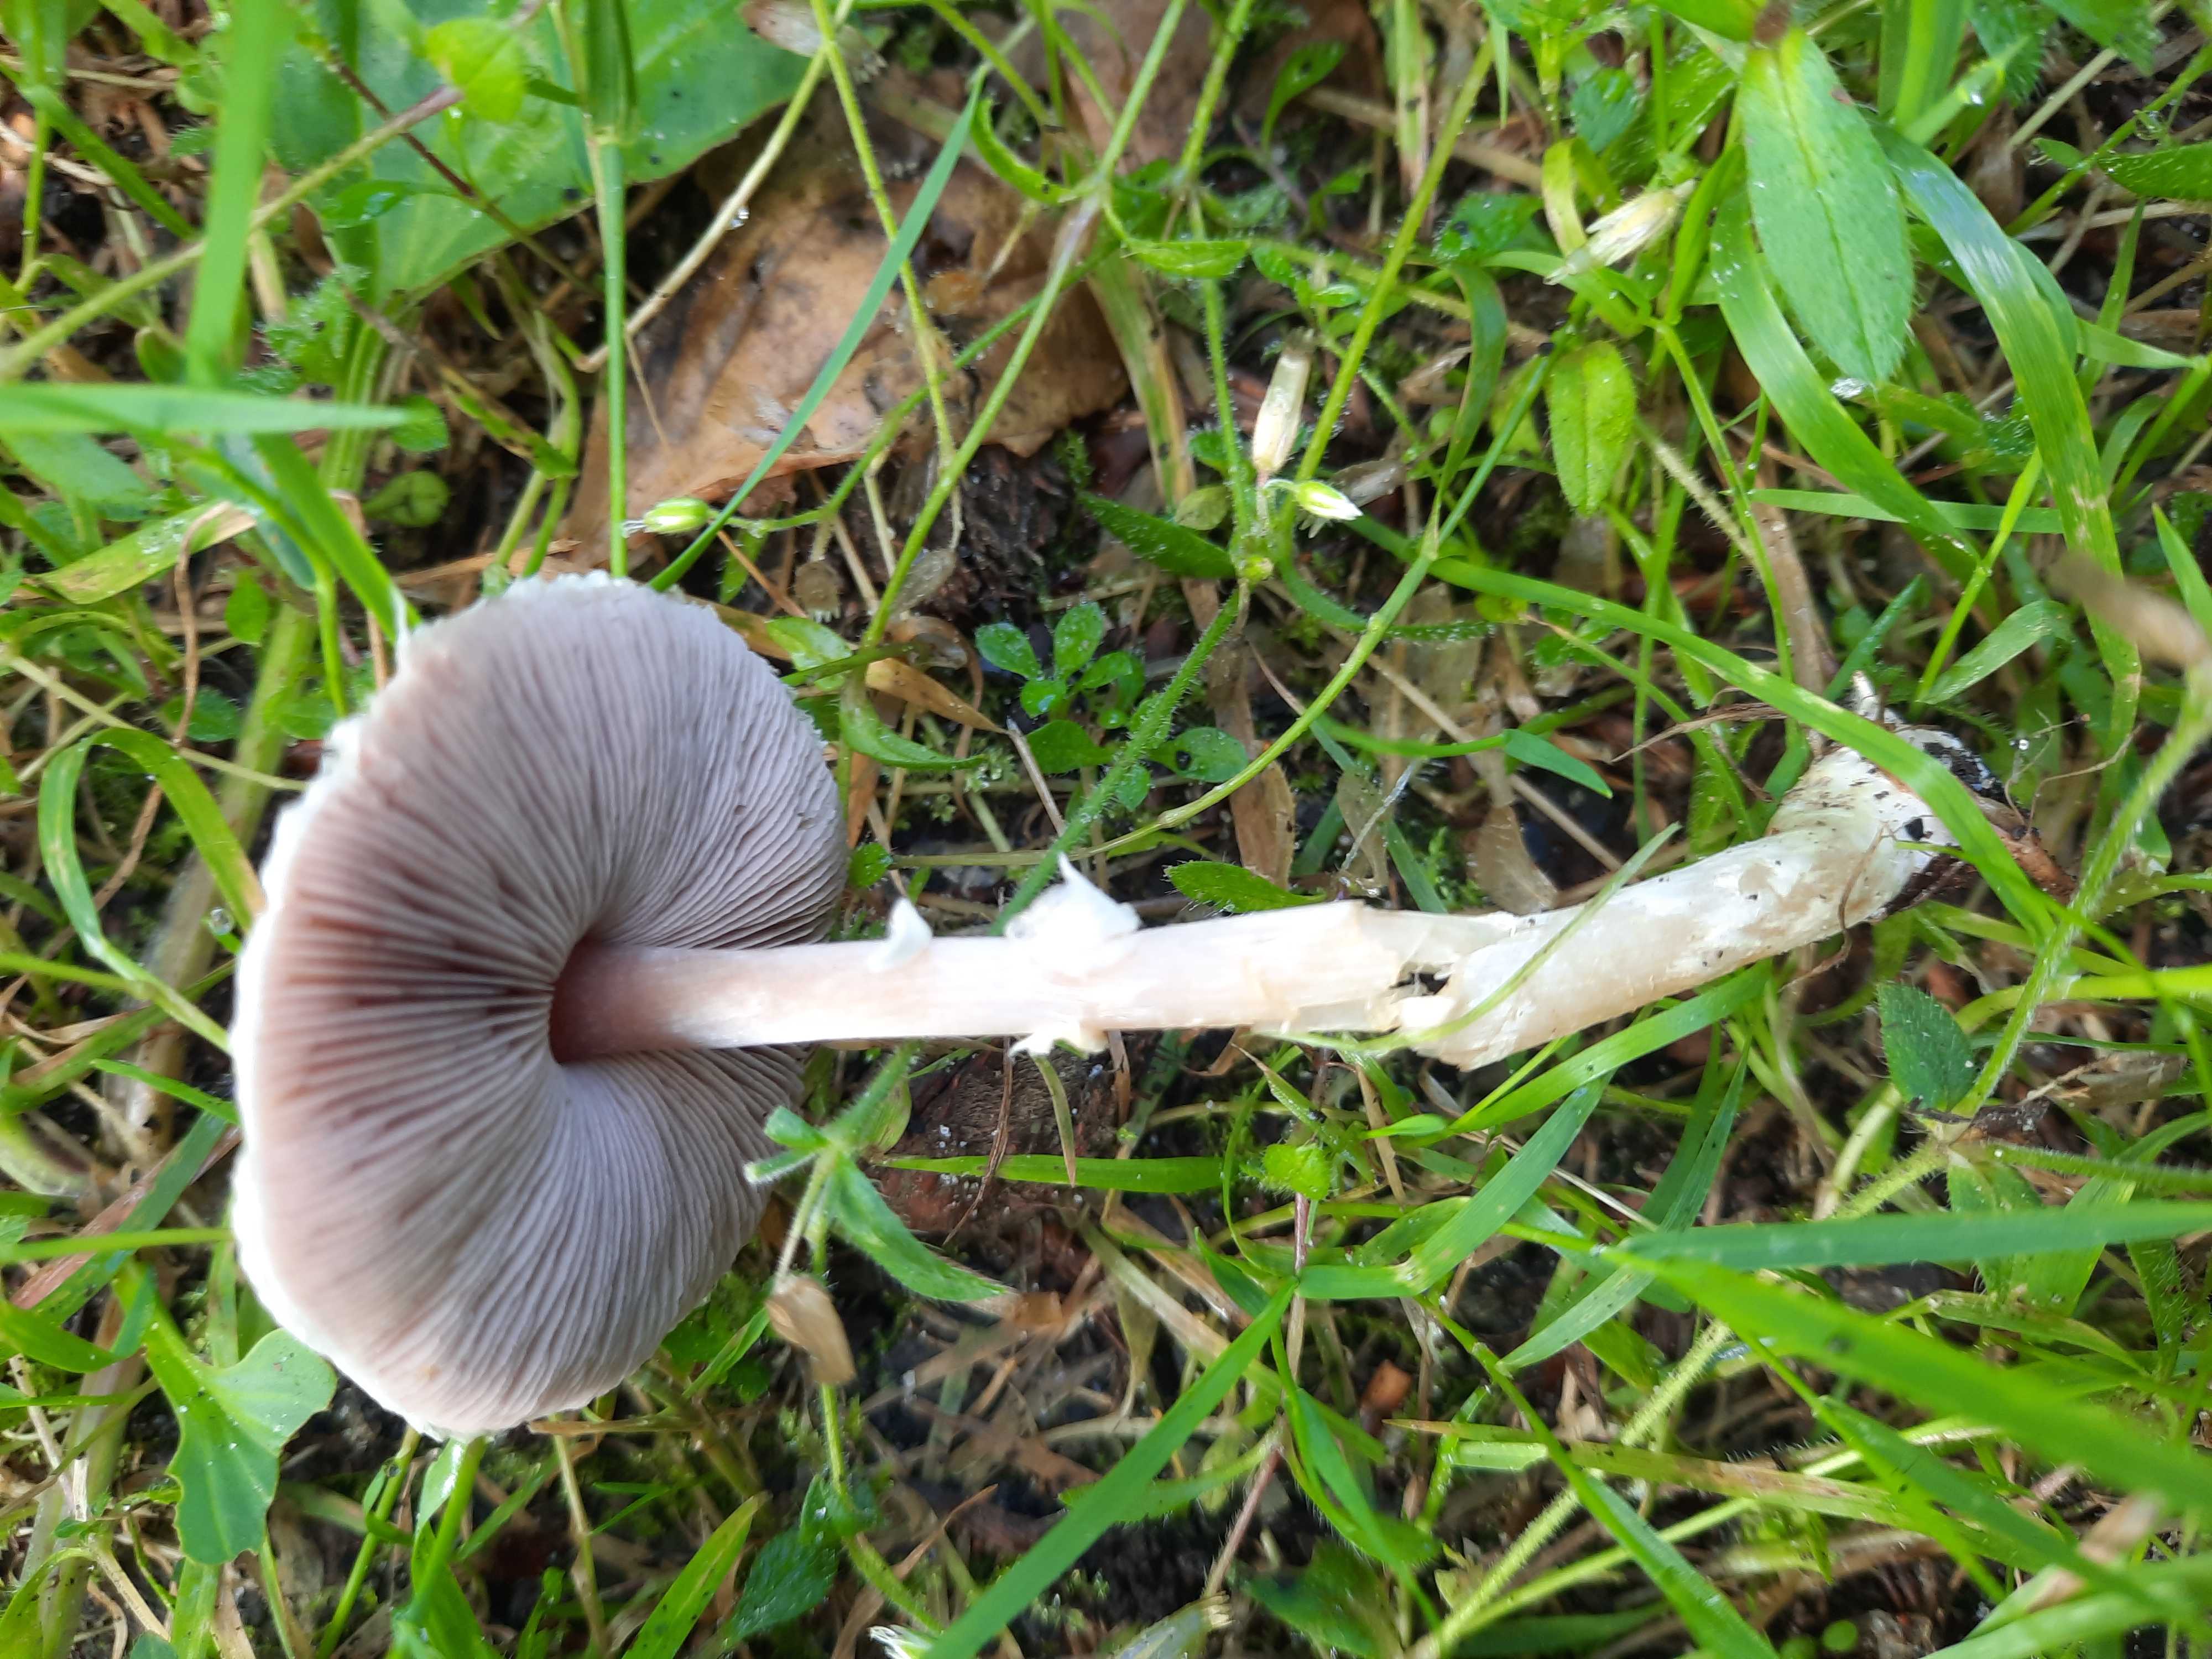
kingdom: Fungi
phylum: Basidiomycota
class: Agaricomycetes
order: Agaricales
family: Agaricaceae
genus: Agaricus
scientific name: Agaricus dulcidulus
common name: blegrød champignon
